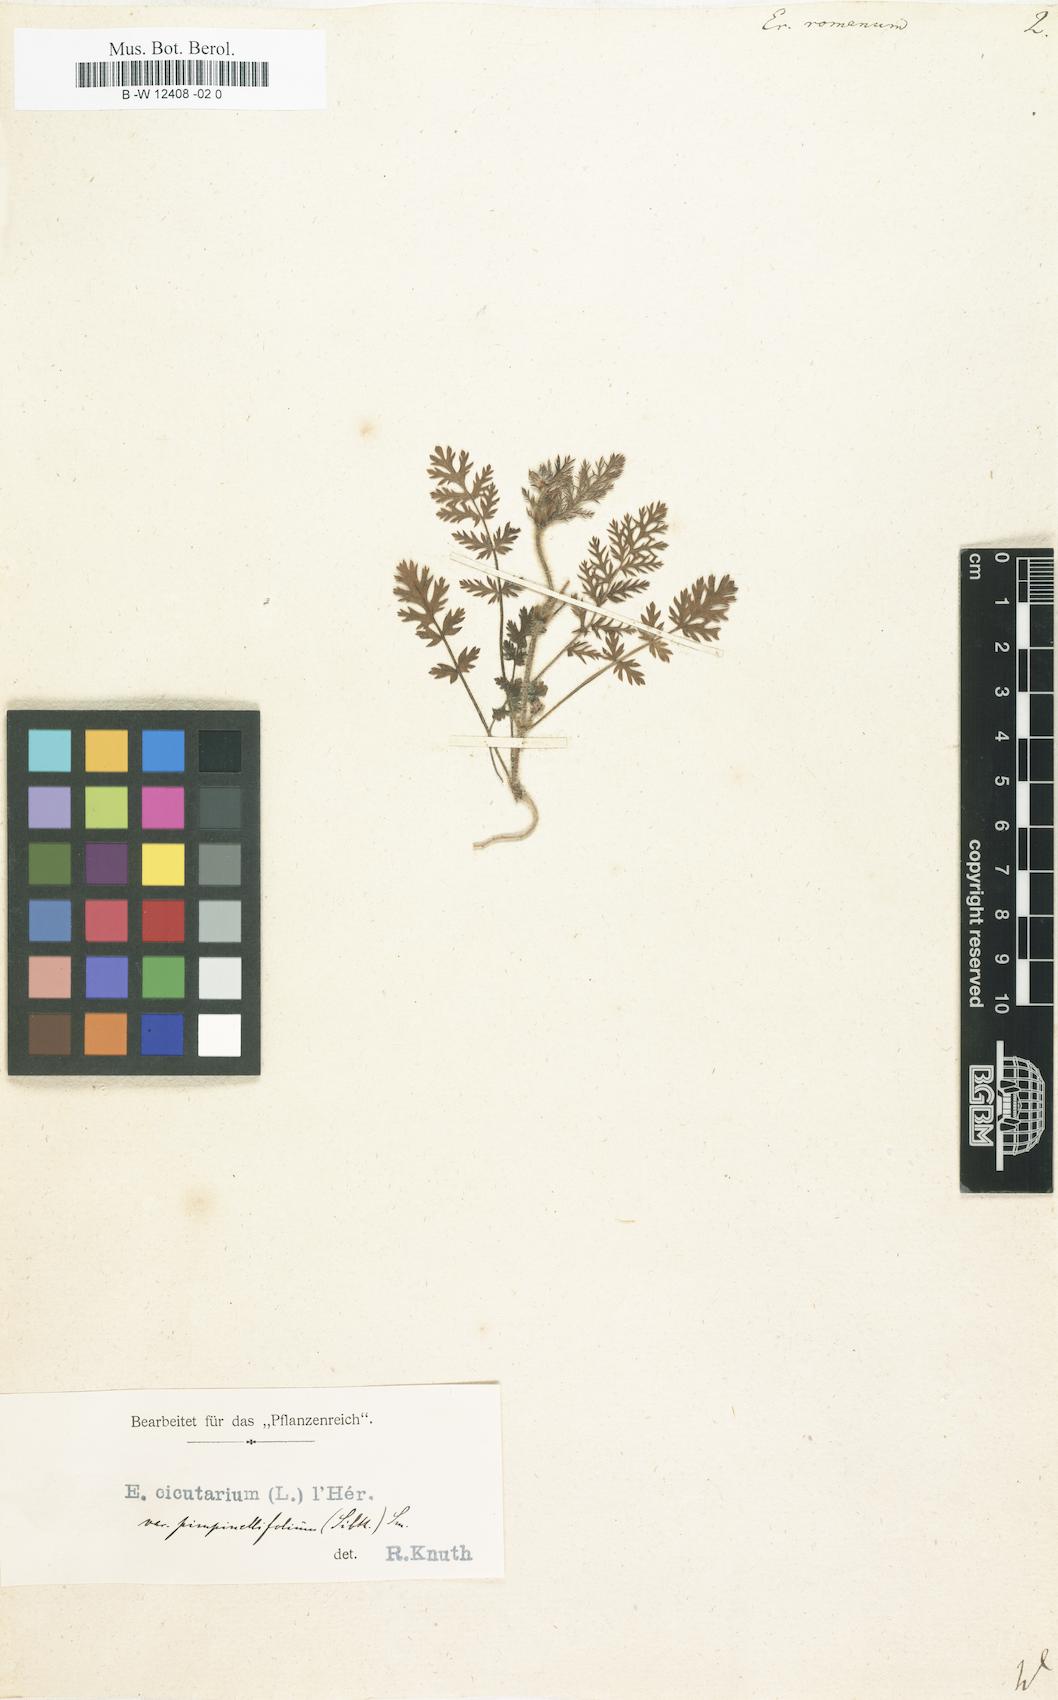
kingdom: Plantae
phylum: Tracheophyta
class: Magnoliopsida
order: Geraniales
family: Geraniaceae
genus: Erodium
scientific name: Erodium romanum
